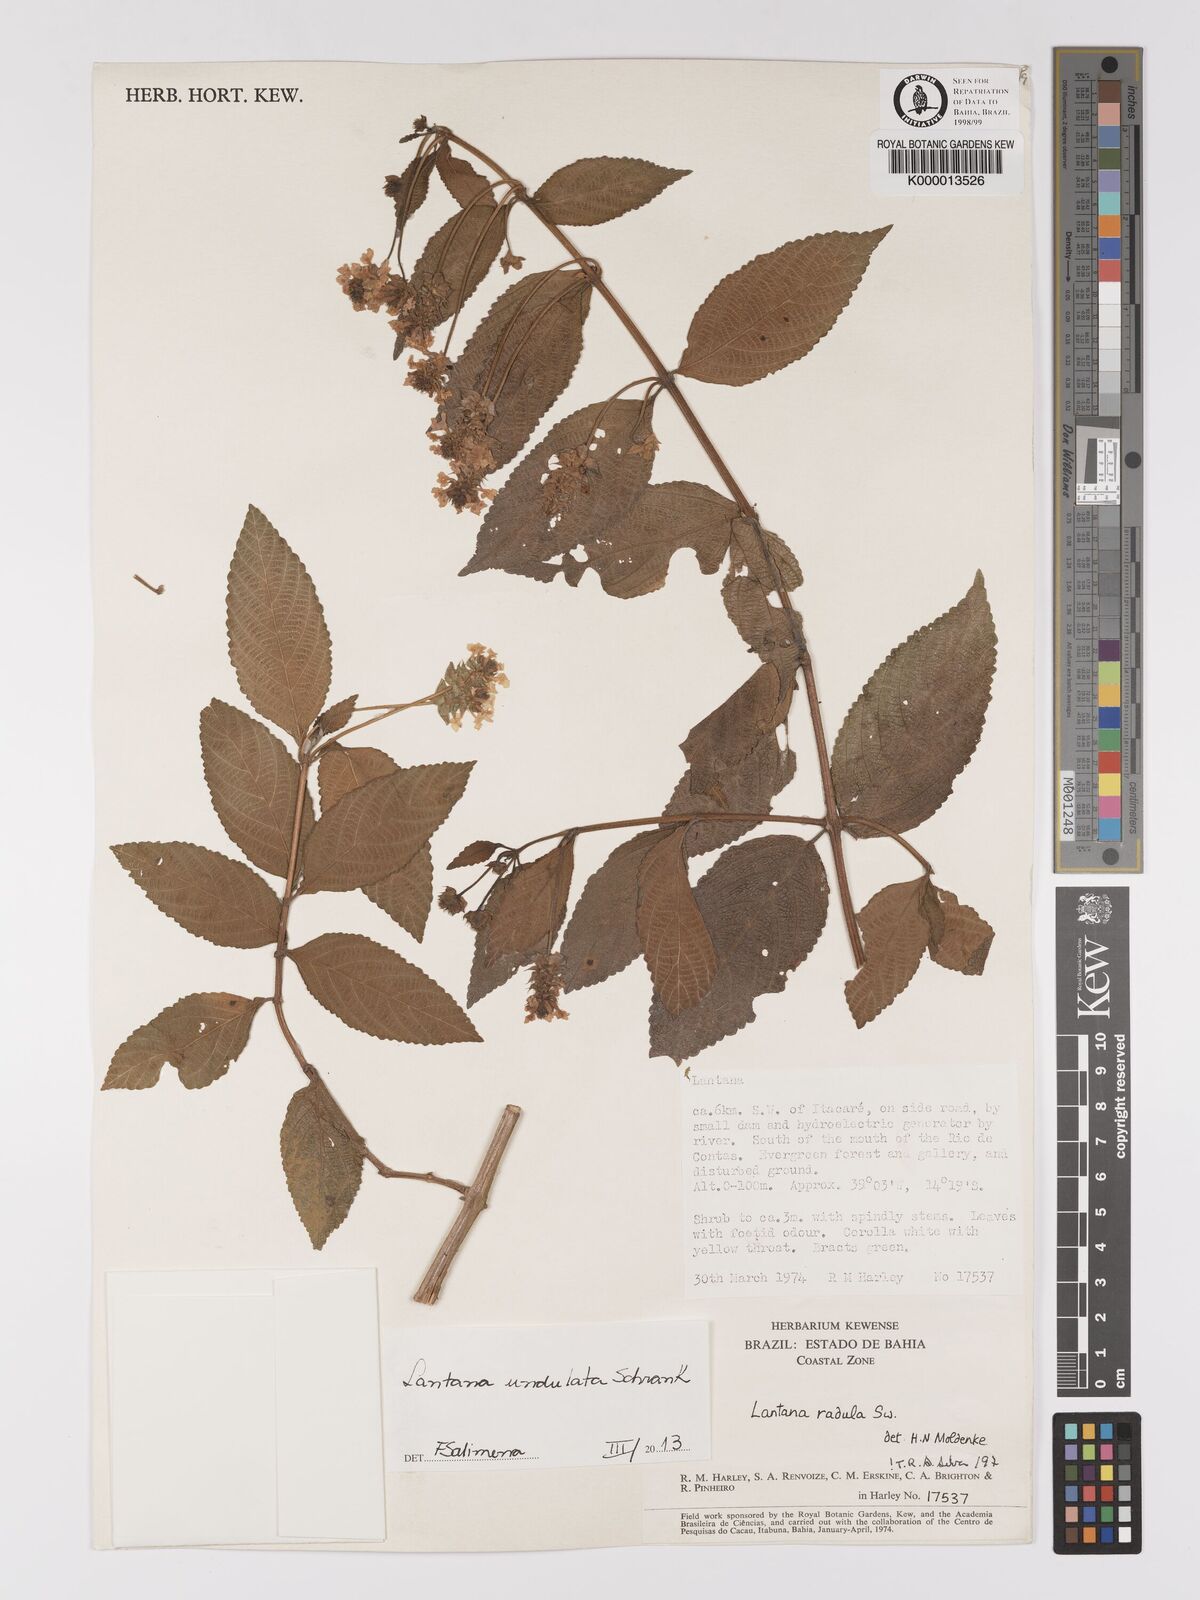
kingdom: Plantae
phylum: Tracheophyta
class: Magnoliopsida
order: Lamiales
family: Verbenaceae
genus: Lantana
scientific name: Lantana undulata
